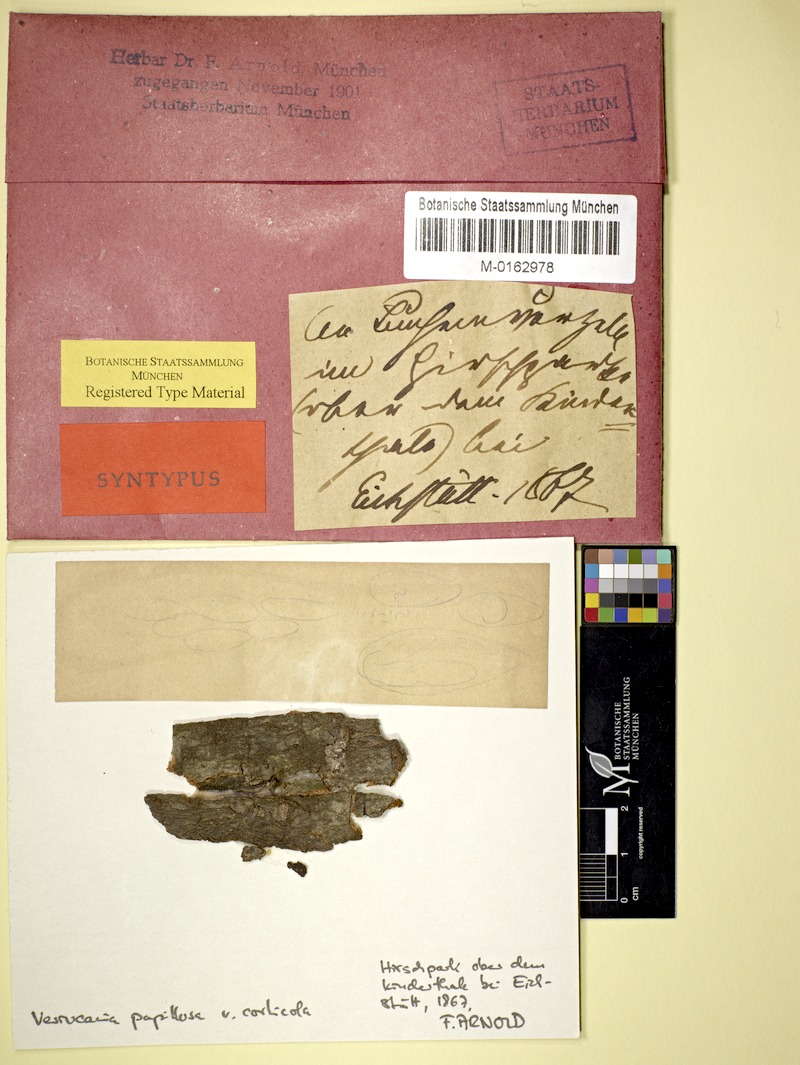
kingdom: Fungi
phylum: Ascomycota
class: Eurotiomycetes
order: Verrucariales
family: Verrucariaceae
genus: Verrucaria
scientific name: Verrucaria corticola
